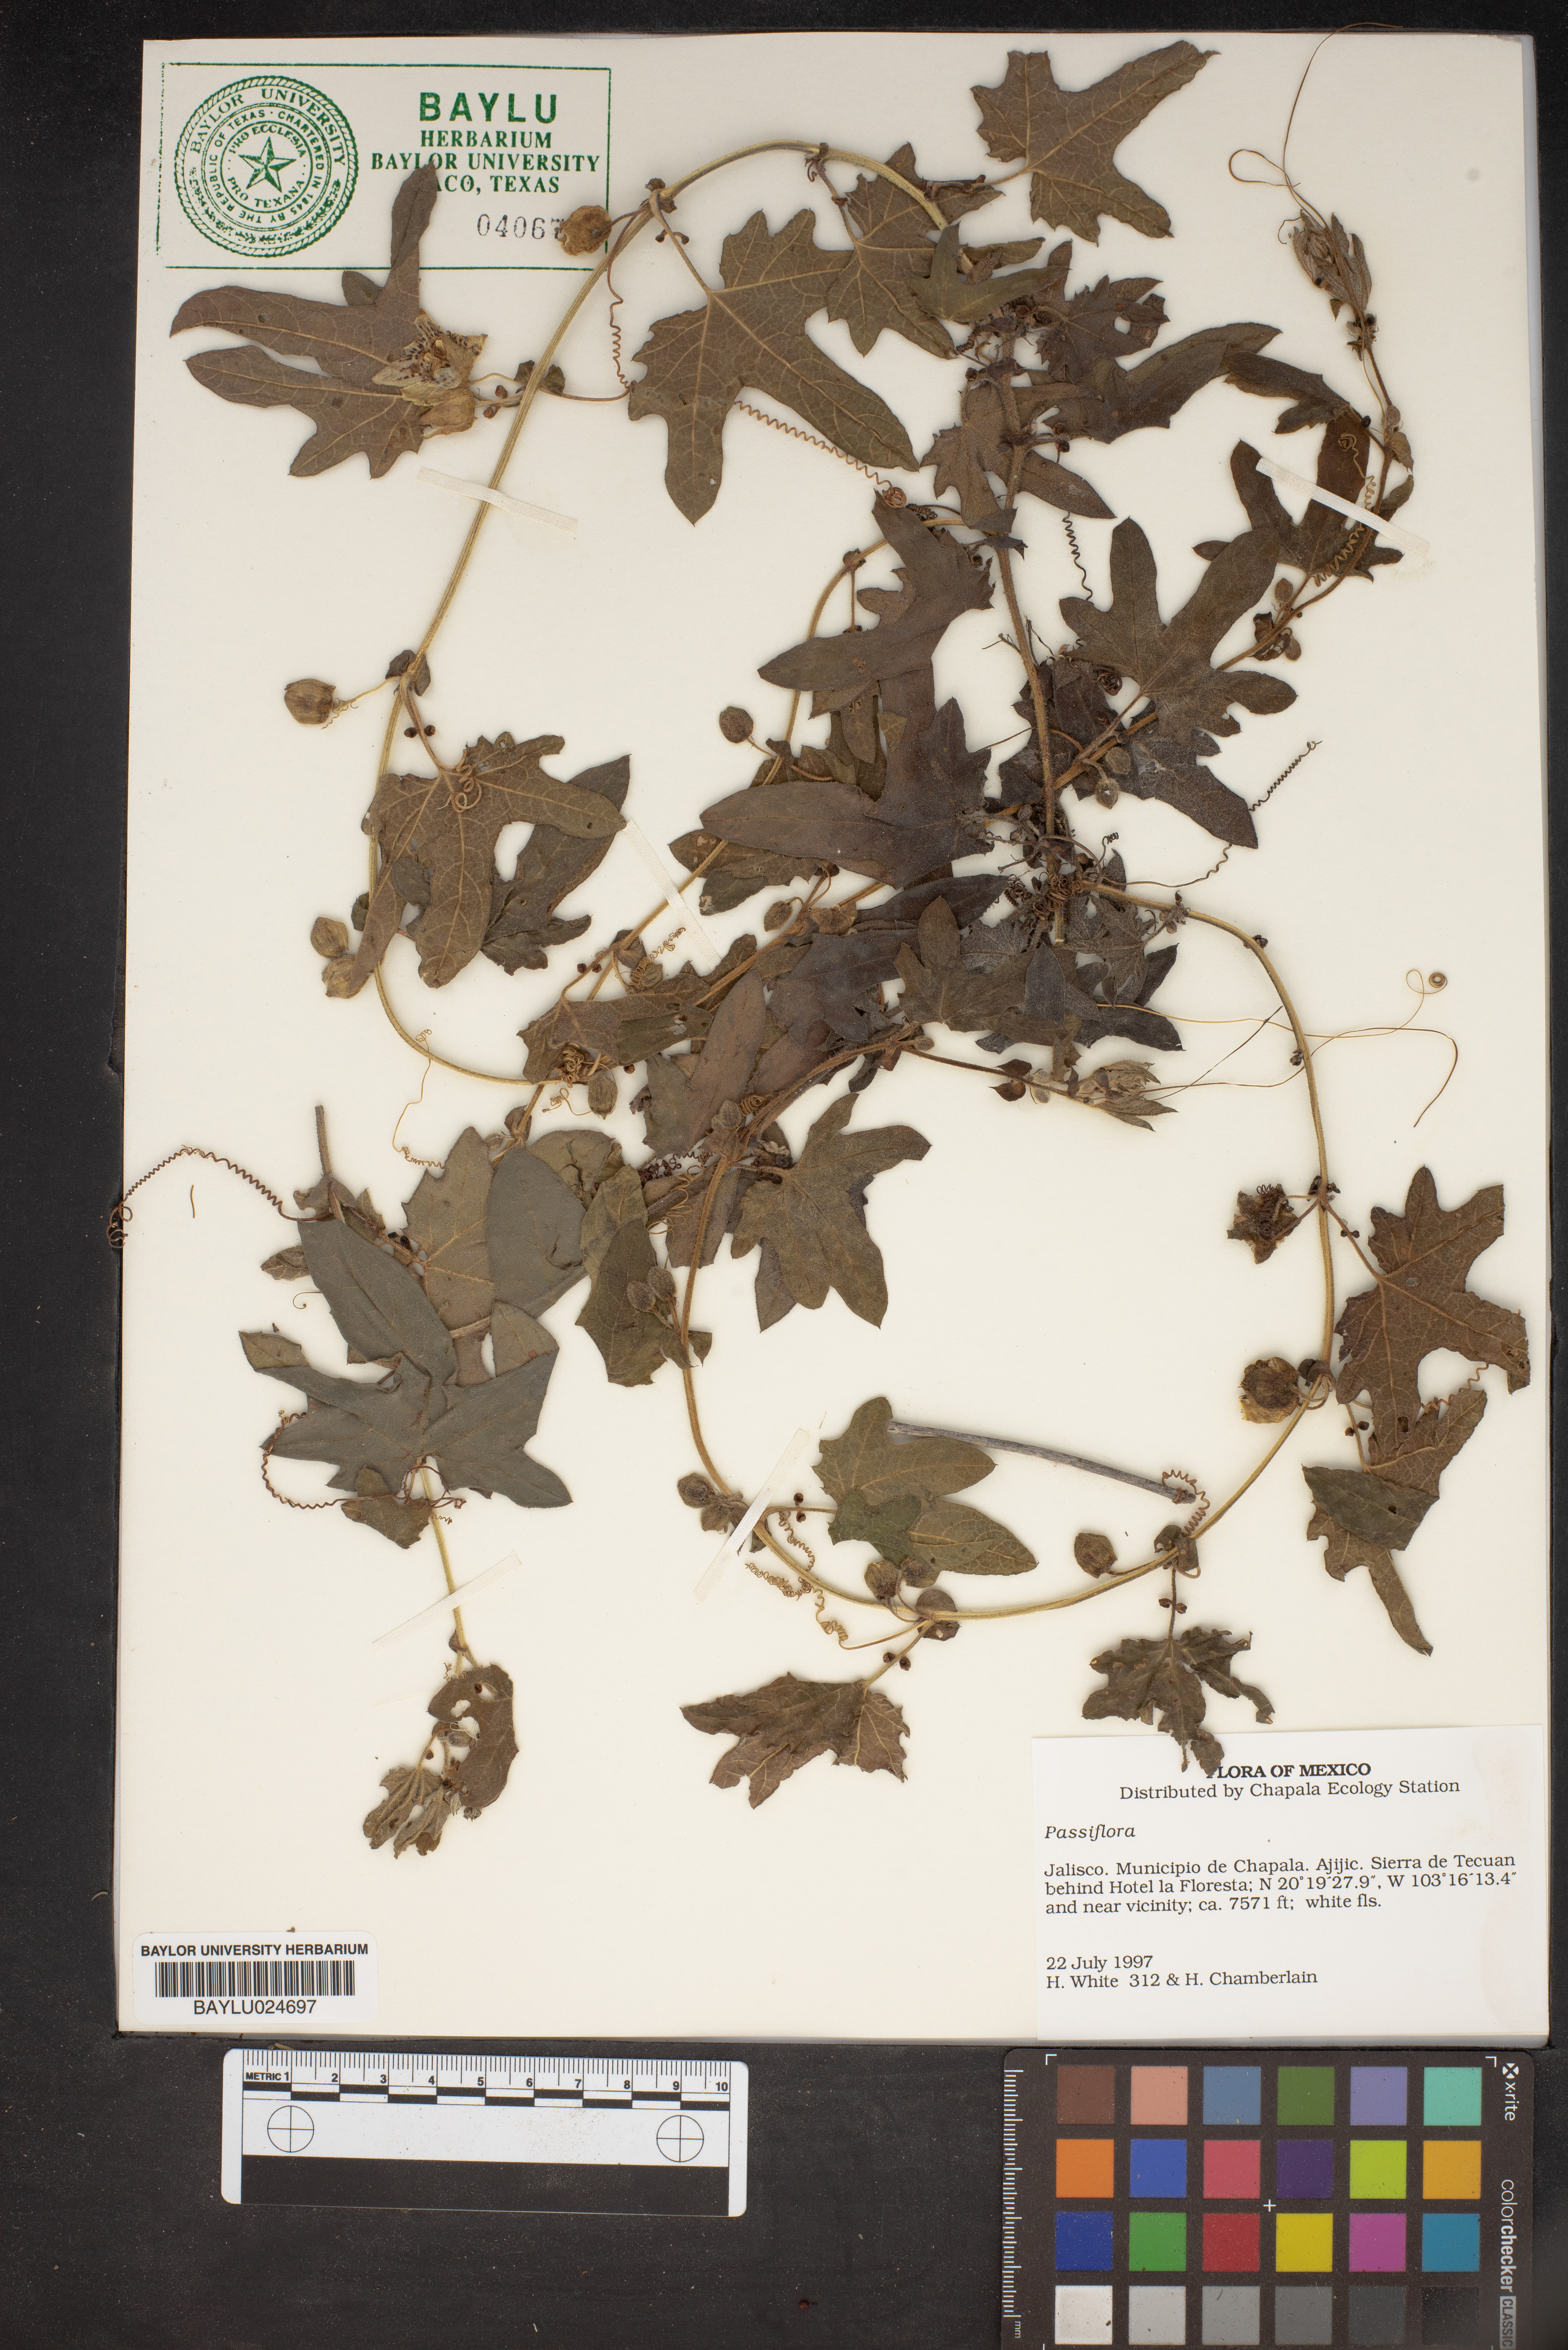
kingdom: Plantae
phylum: Tracheophyta
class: Magnoliopsida
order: Malpighiales
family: Passifloraceae
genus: Passiflora
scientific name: Passiflora
